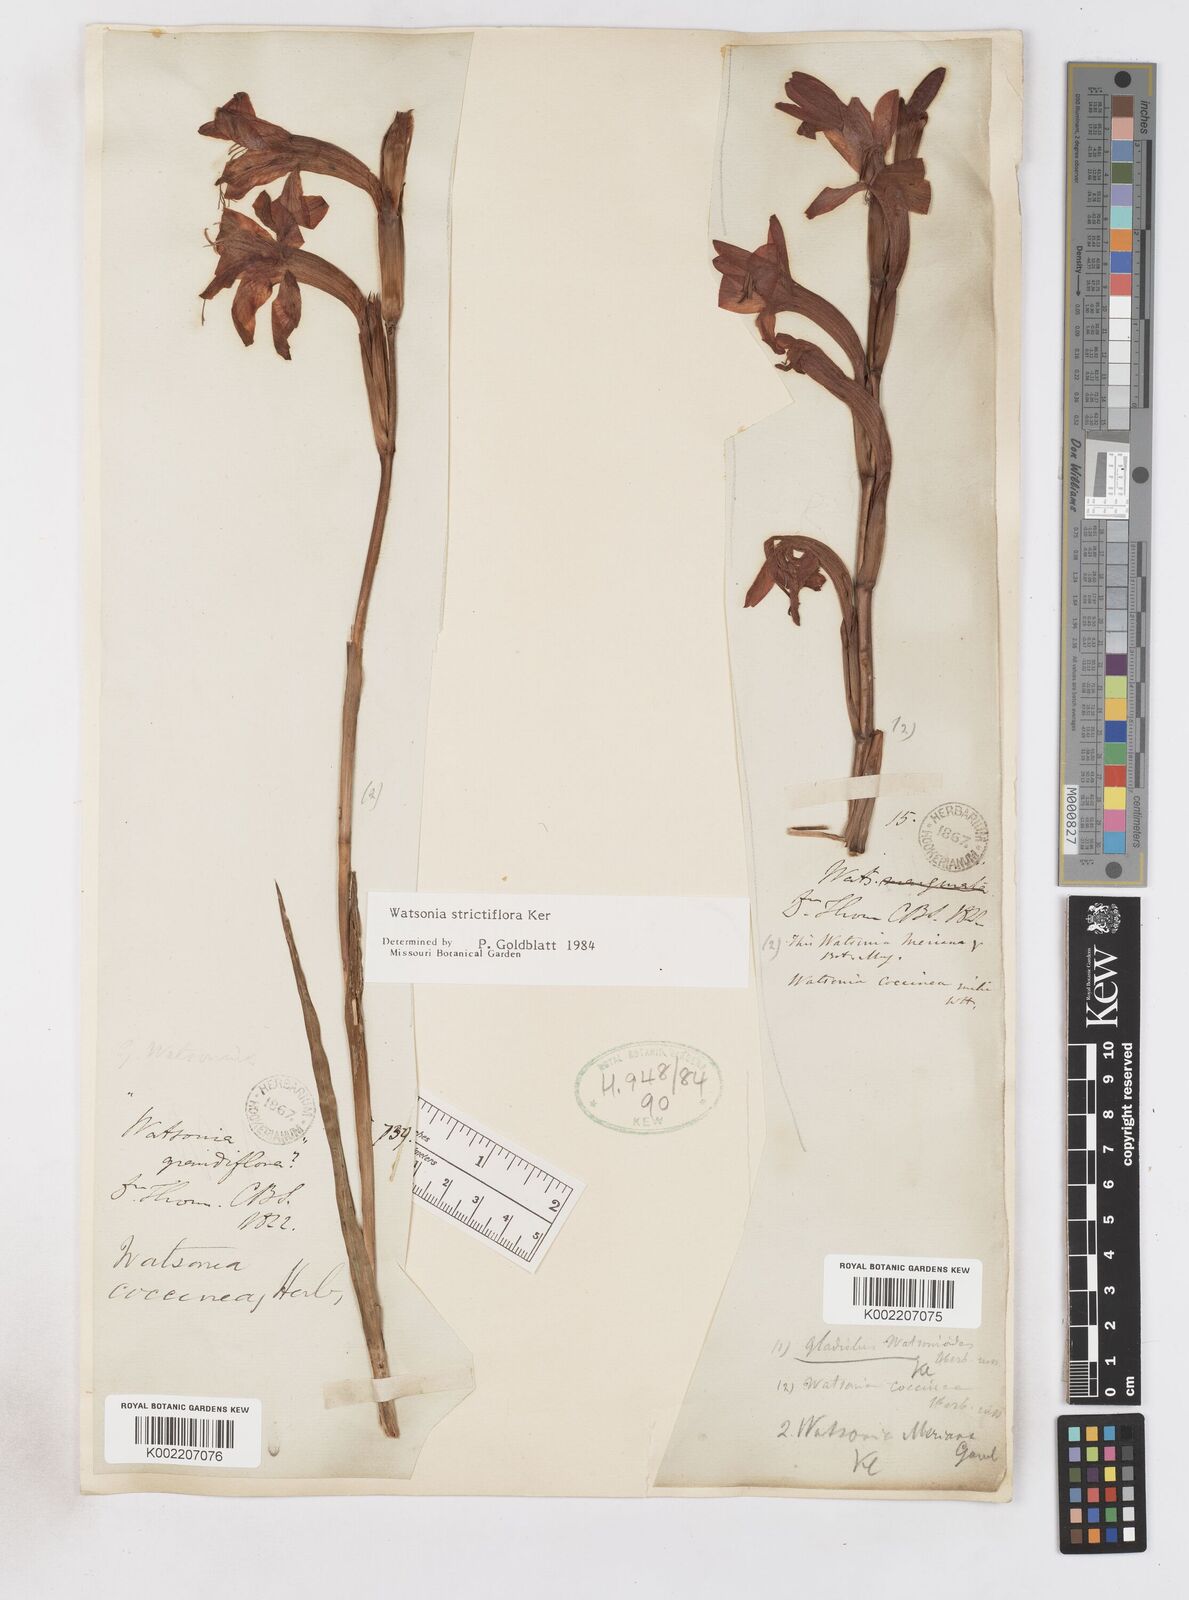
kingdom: Plantae
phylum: Tracheophyta
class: Liliopsida
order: Asparagales
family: Iridaceae
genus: Watsonia
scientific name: Watsonia strictiflora
